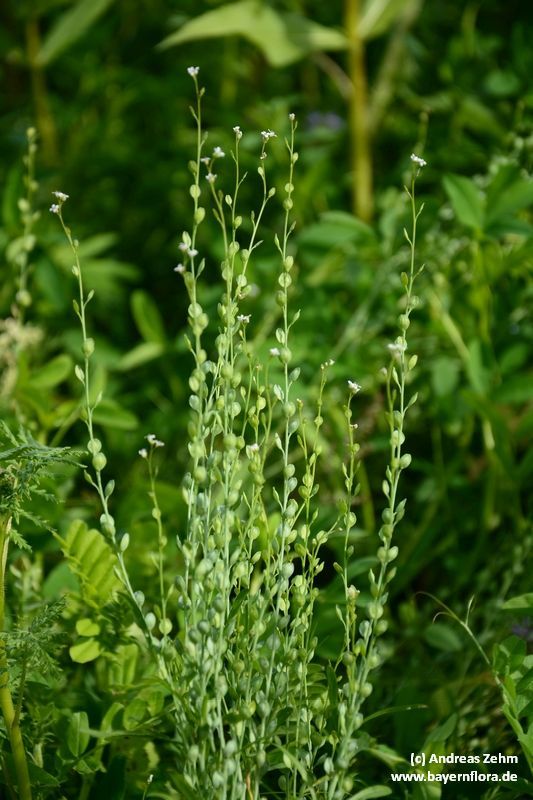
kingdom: Plantae
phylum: Tracheophyta
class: Magnoliopsida
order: Brassicales
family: Brassicaceae
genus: Lepidium
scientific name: Lepidium sativum
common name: Garden cress
